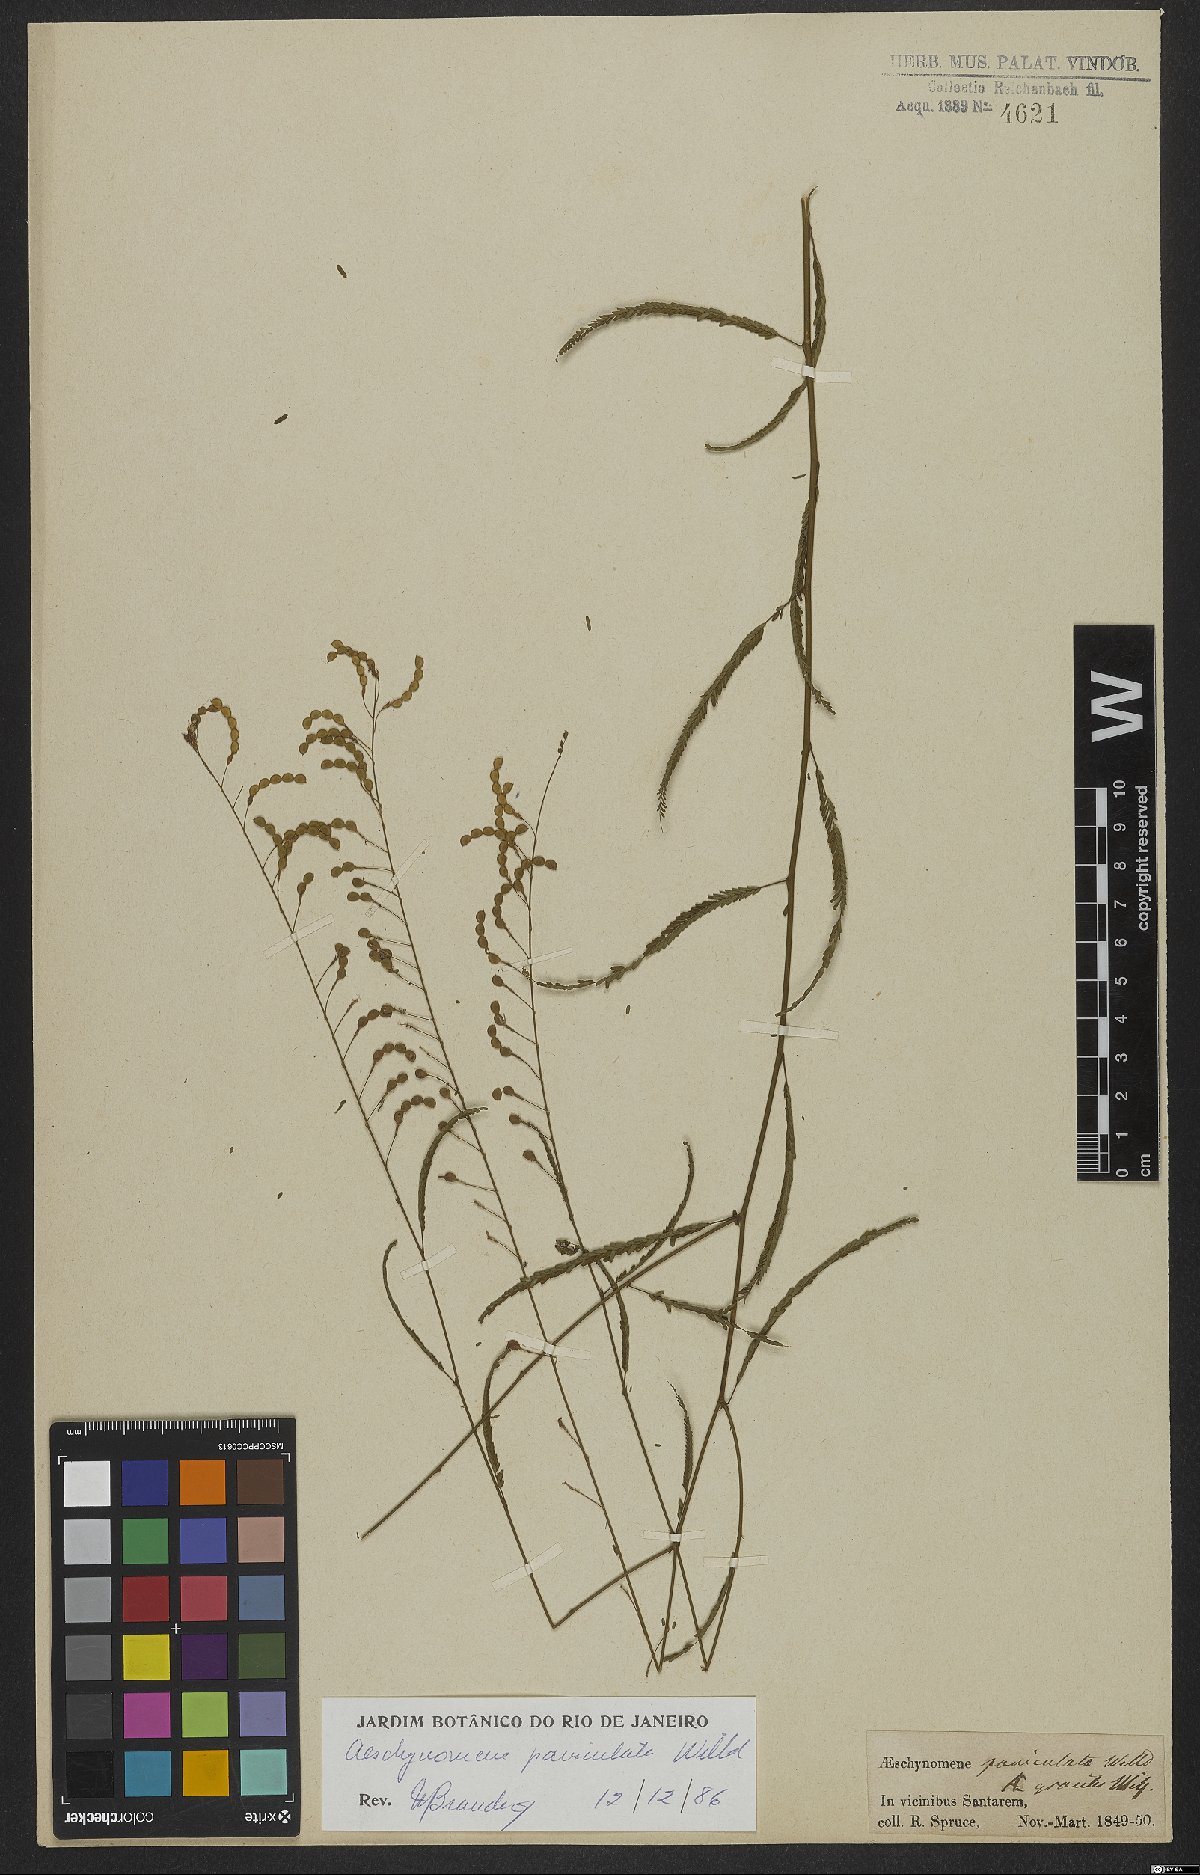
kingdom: Plantae
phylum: Tracheophyta
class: Magnoliopsida
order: Fabales
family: Fabaceae
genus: Ctenodon
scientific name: Ctenodon paniculatus
